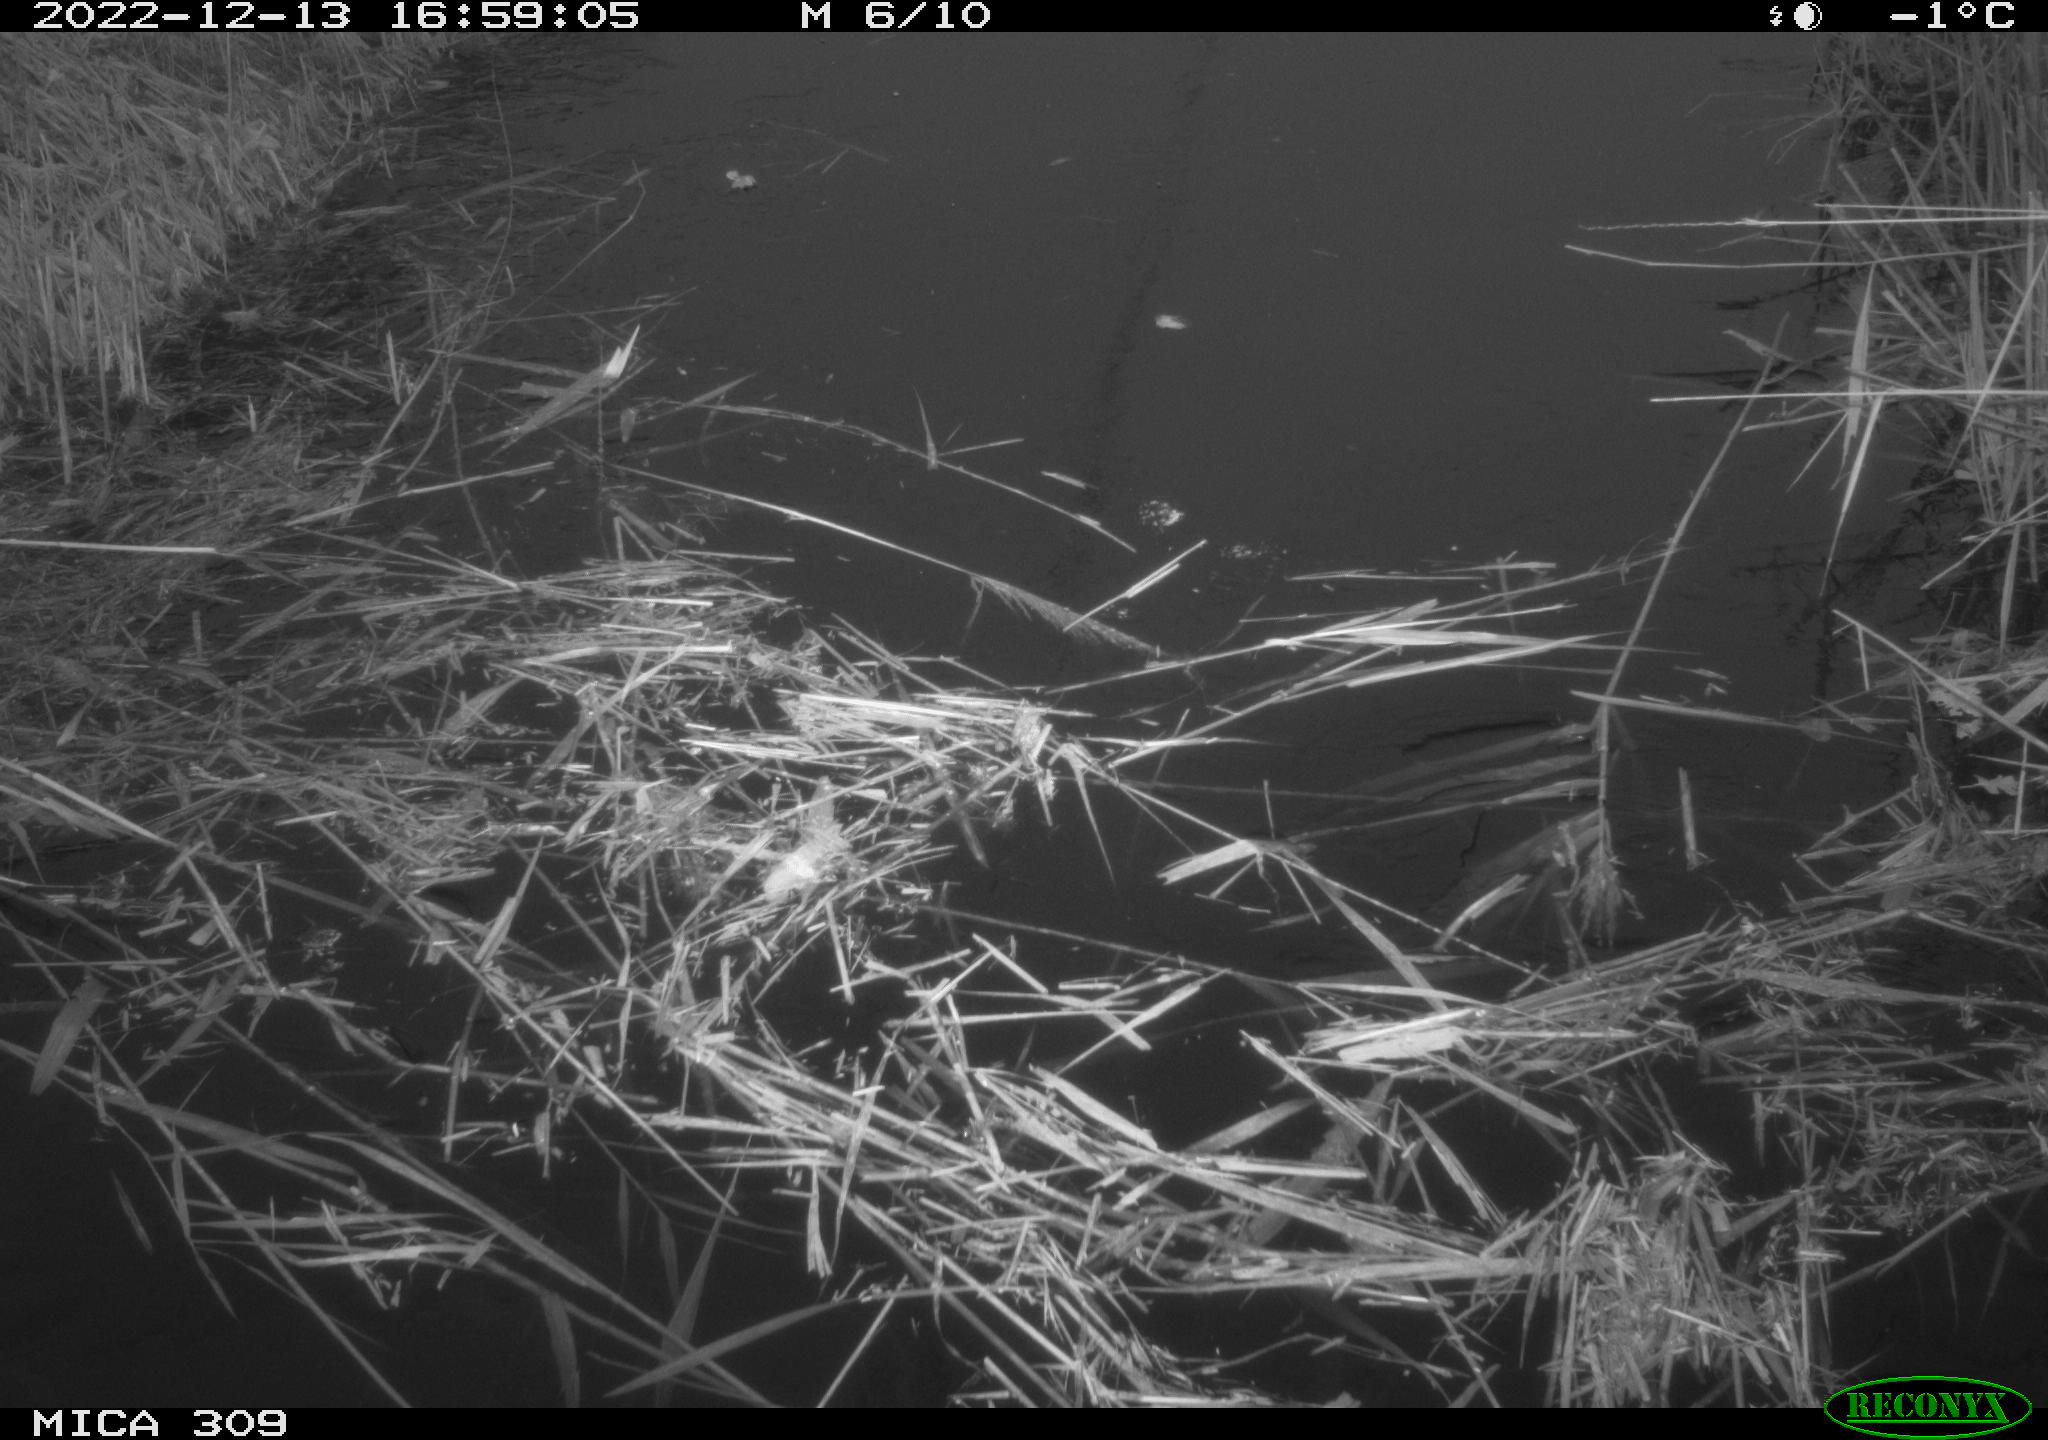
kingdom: Animalia
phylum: Chordata
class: Mammalia
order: Rodentia
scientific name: Rodentia
